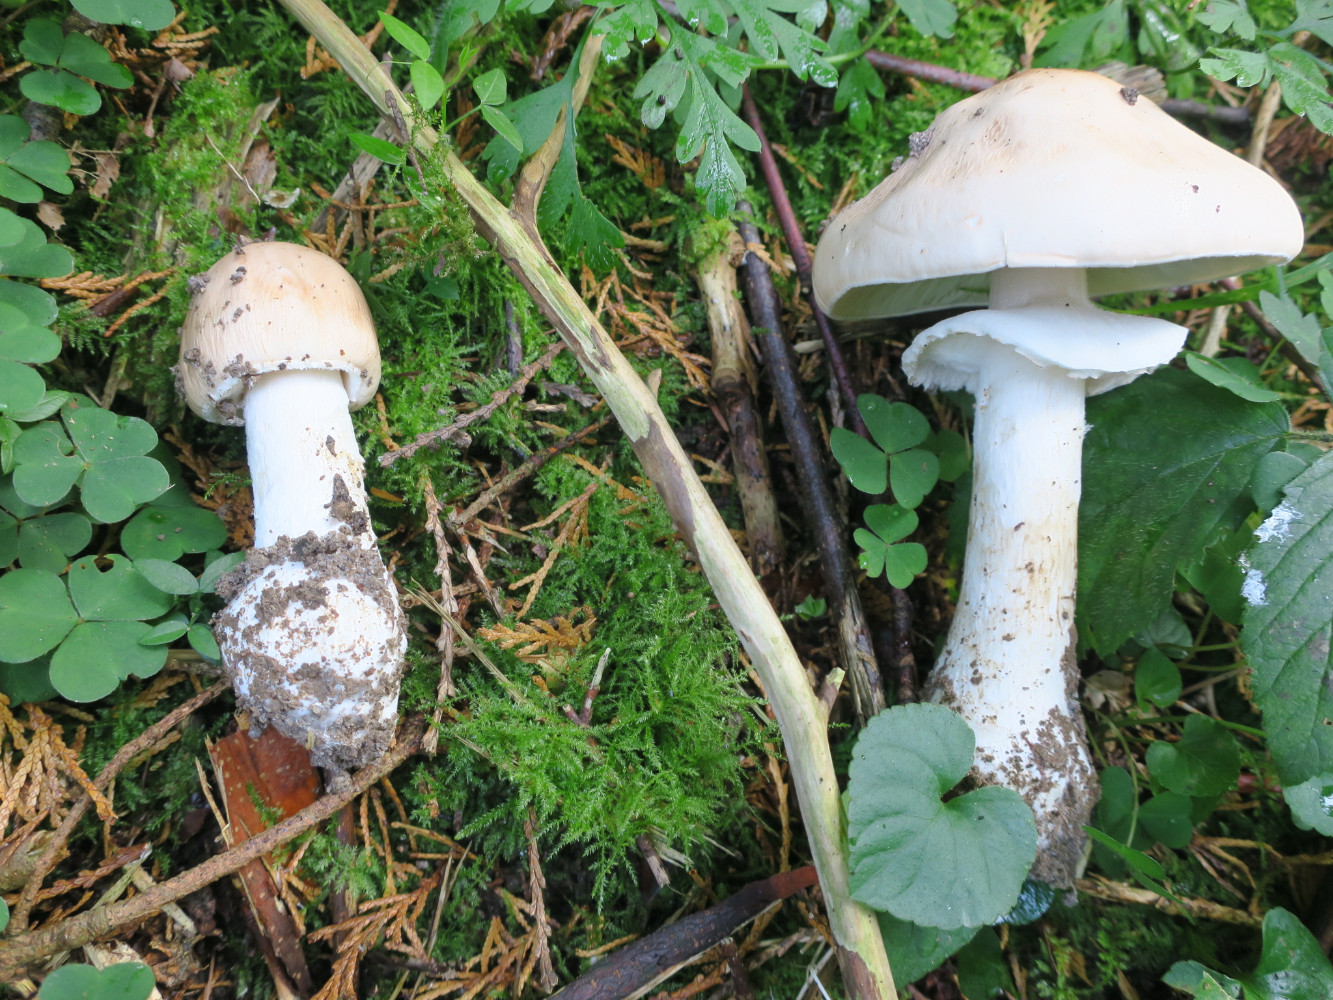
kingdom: Fungi
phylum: Basidiomycota
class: Agaricomycetes
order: Agaricales
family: Amanitaceae
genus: Limacellopsis
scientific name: Limacellopsis guttata
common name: tåre-snekkehat
